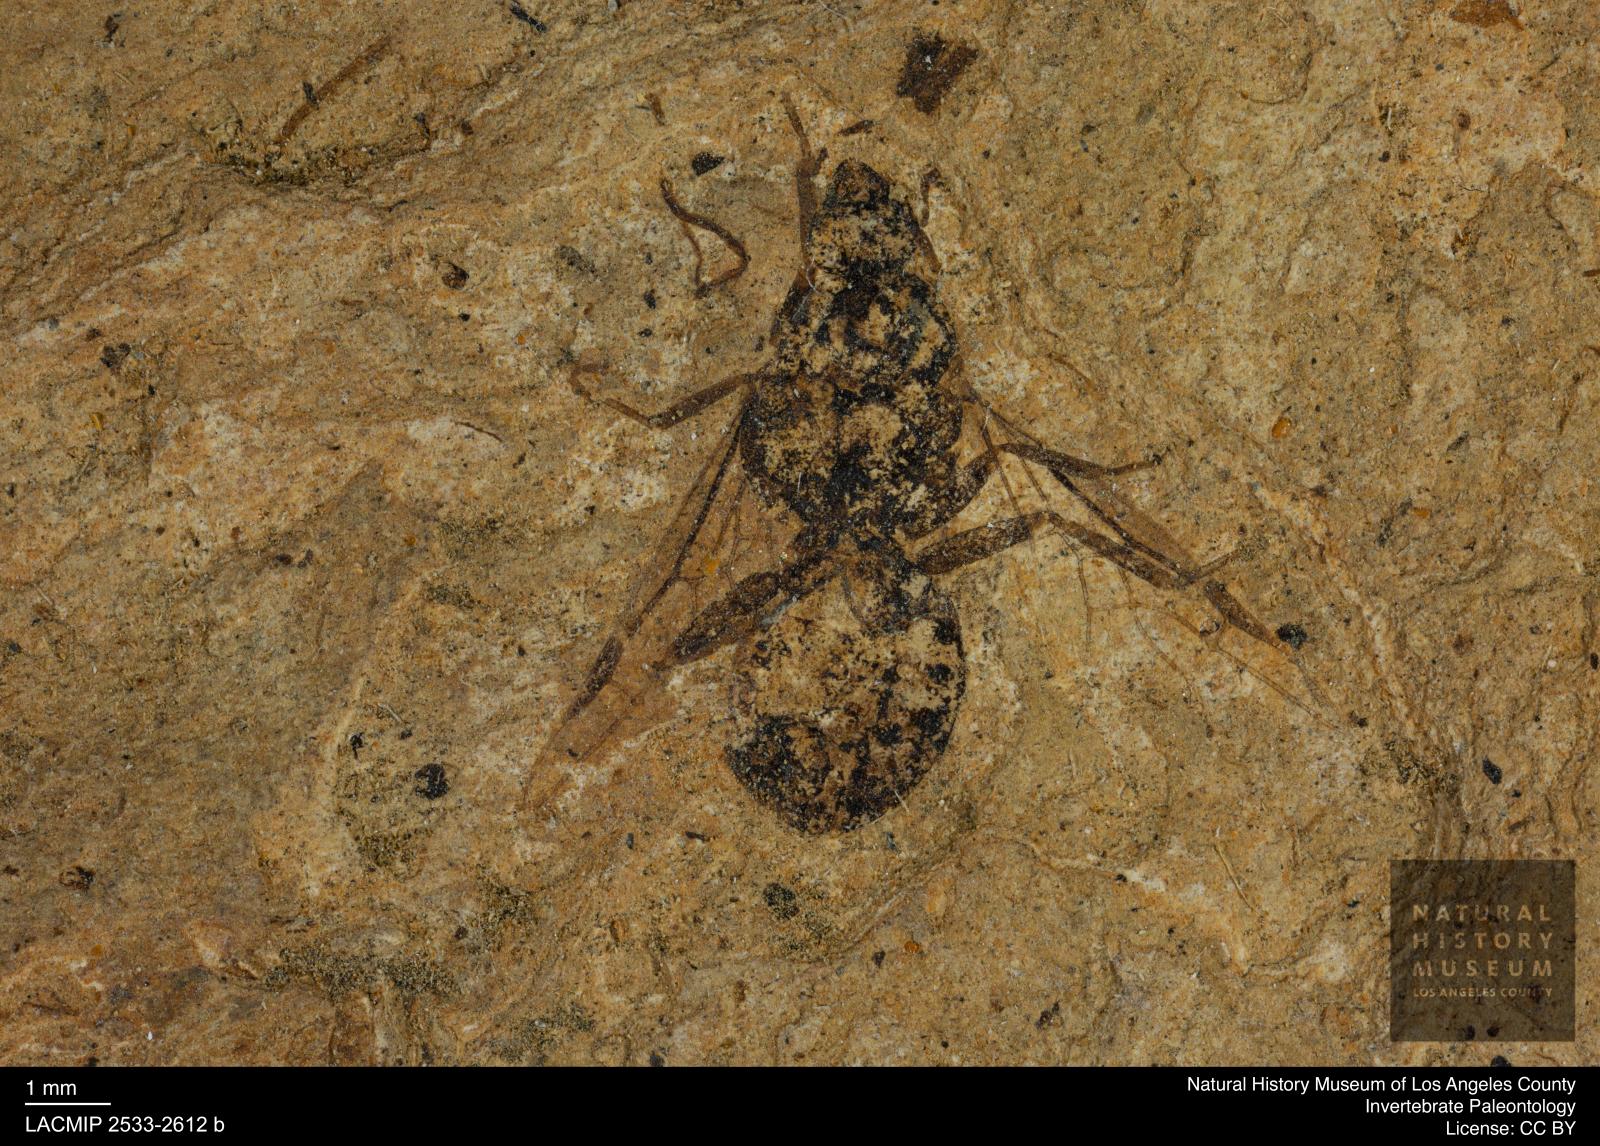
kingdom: Animalia
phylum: Arthropoda
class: Insecta
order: Hymenoptera
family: Formicidae
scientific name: Formicidae
